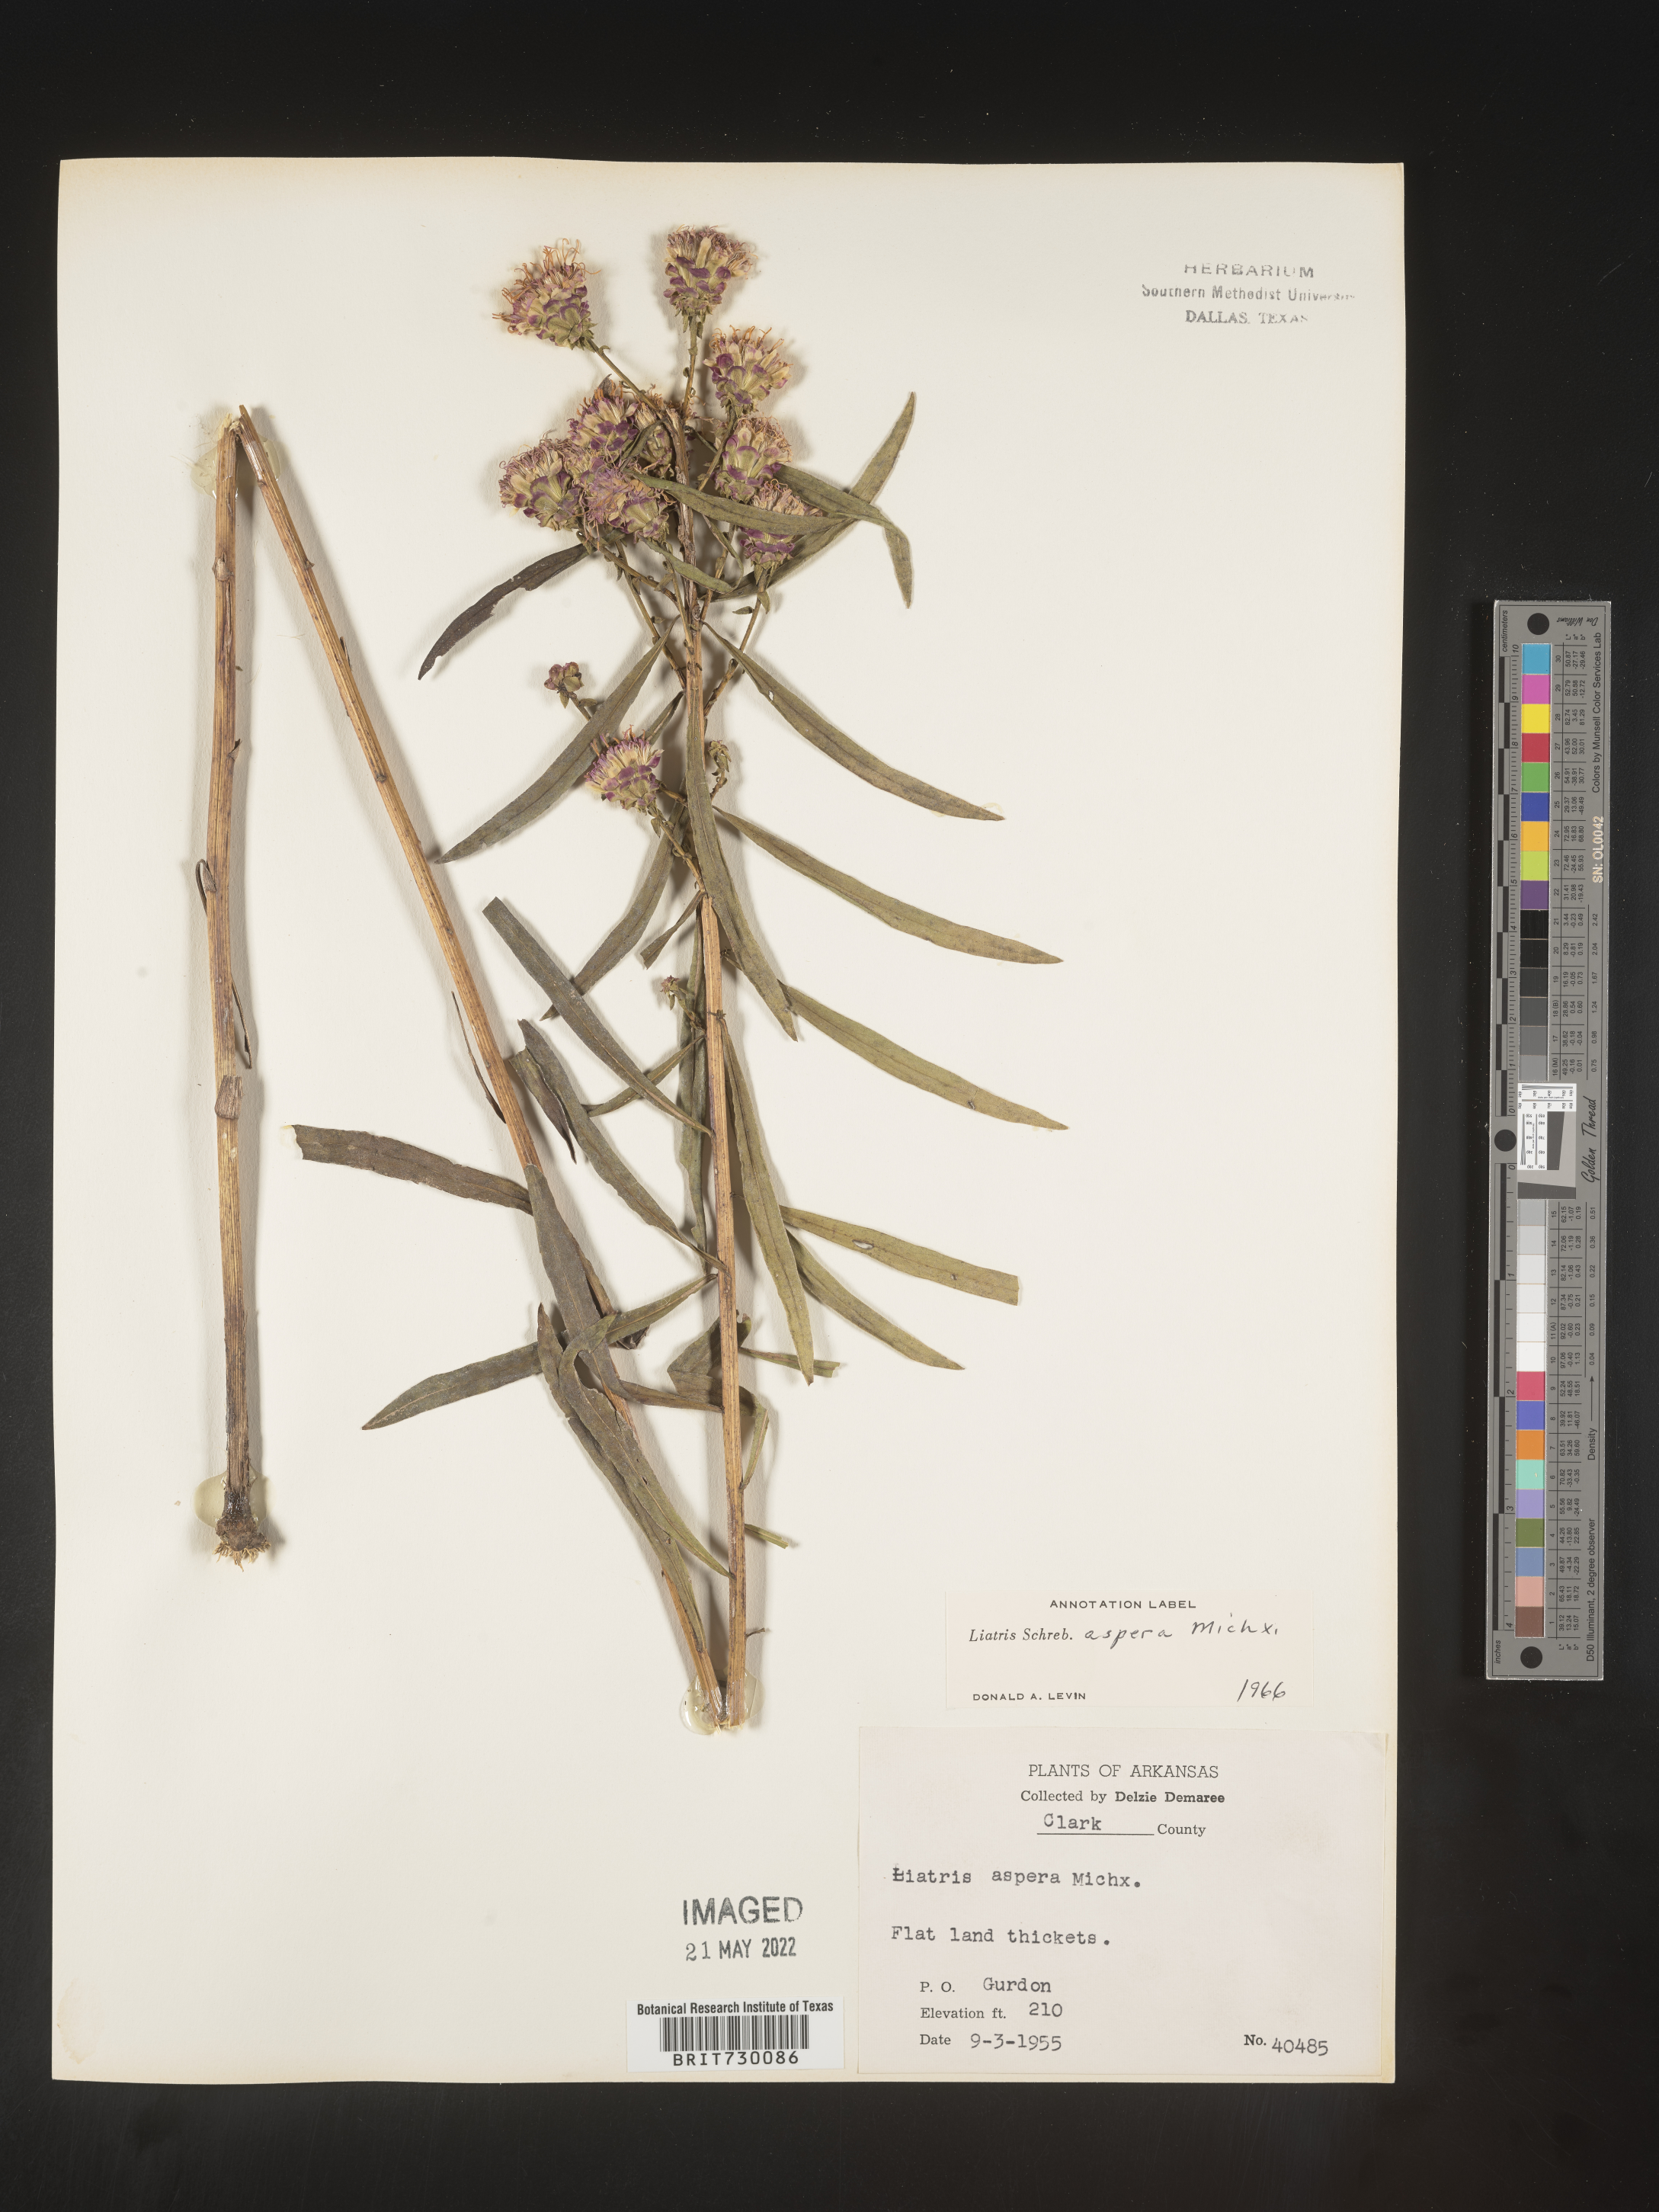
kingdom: Plantae
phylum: Tracheophyta
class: Magnoliopsida
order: Asterales
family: Asteraceae
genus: Liatris
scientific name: Liatris aspera
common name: Lacerate blazing-star
